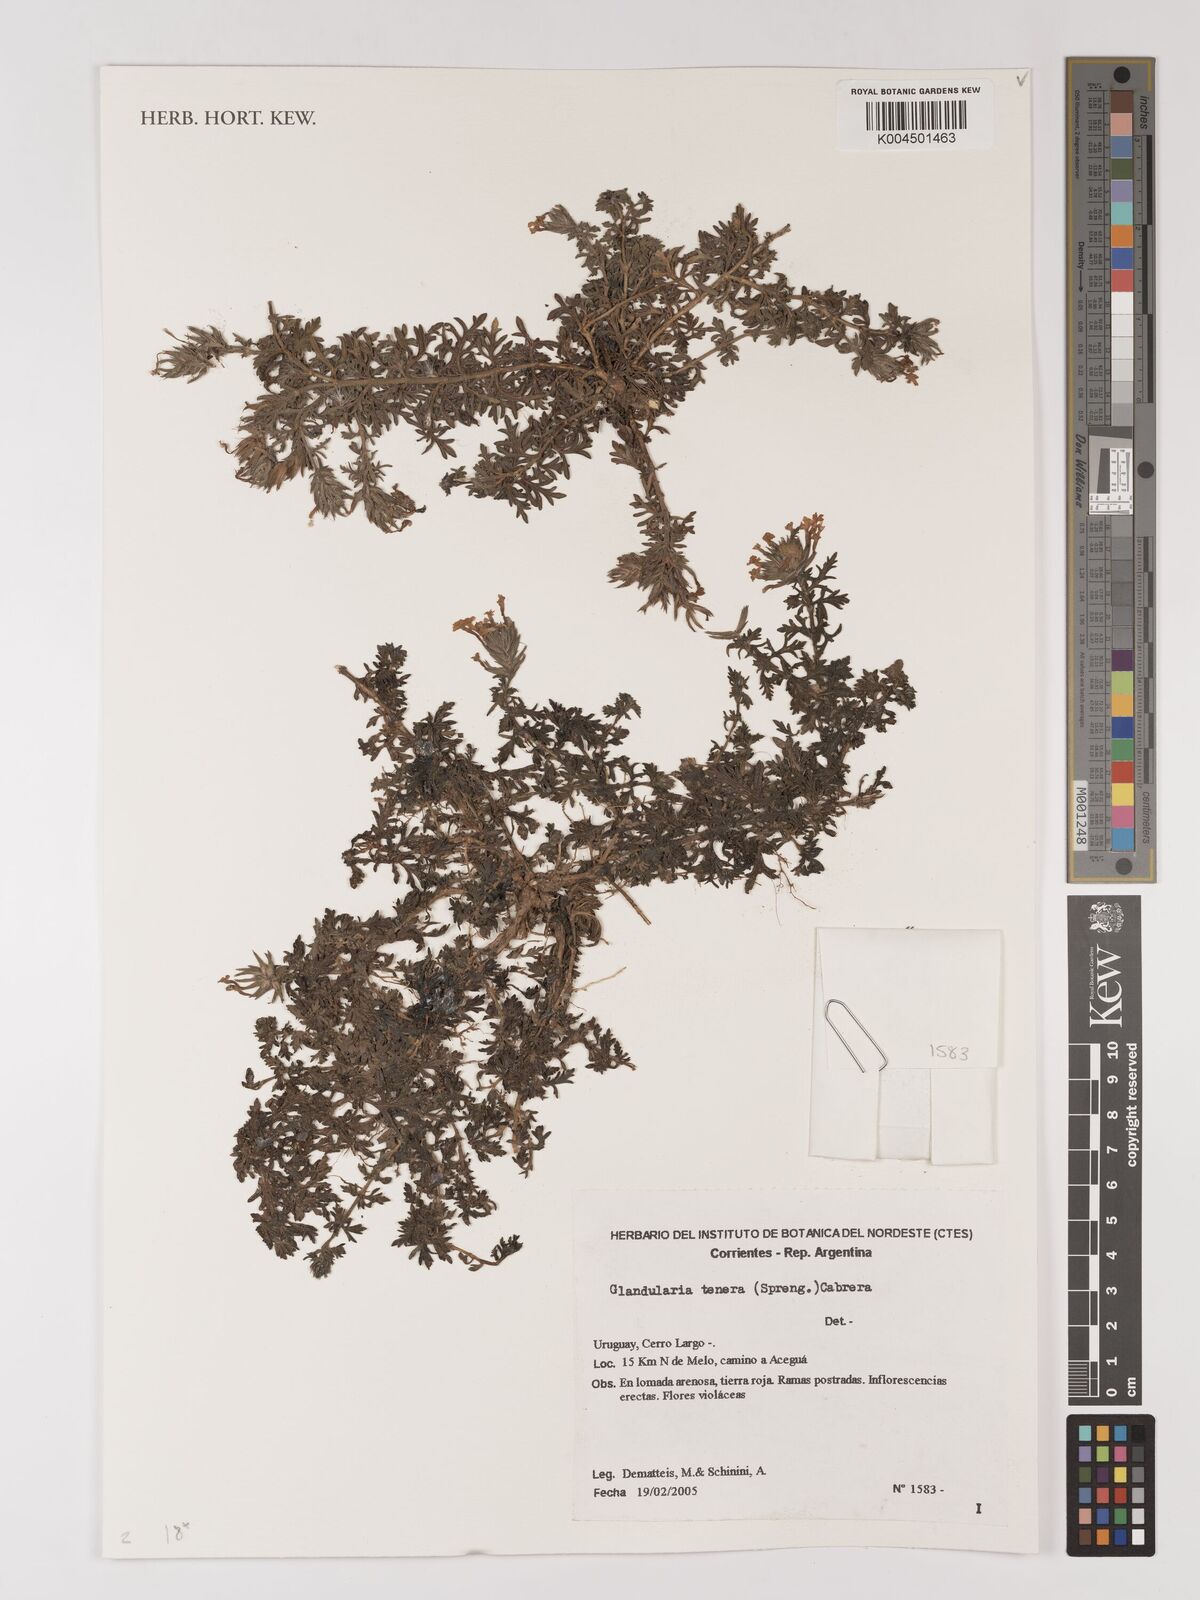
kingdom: Plantae
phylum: Tracheophyta
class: Magnoliopsida
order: Lamiales
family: Verbenaceae
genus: Verbena
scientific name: Verbena tenera
